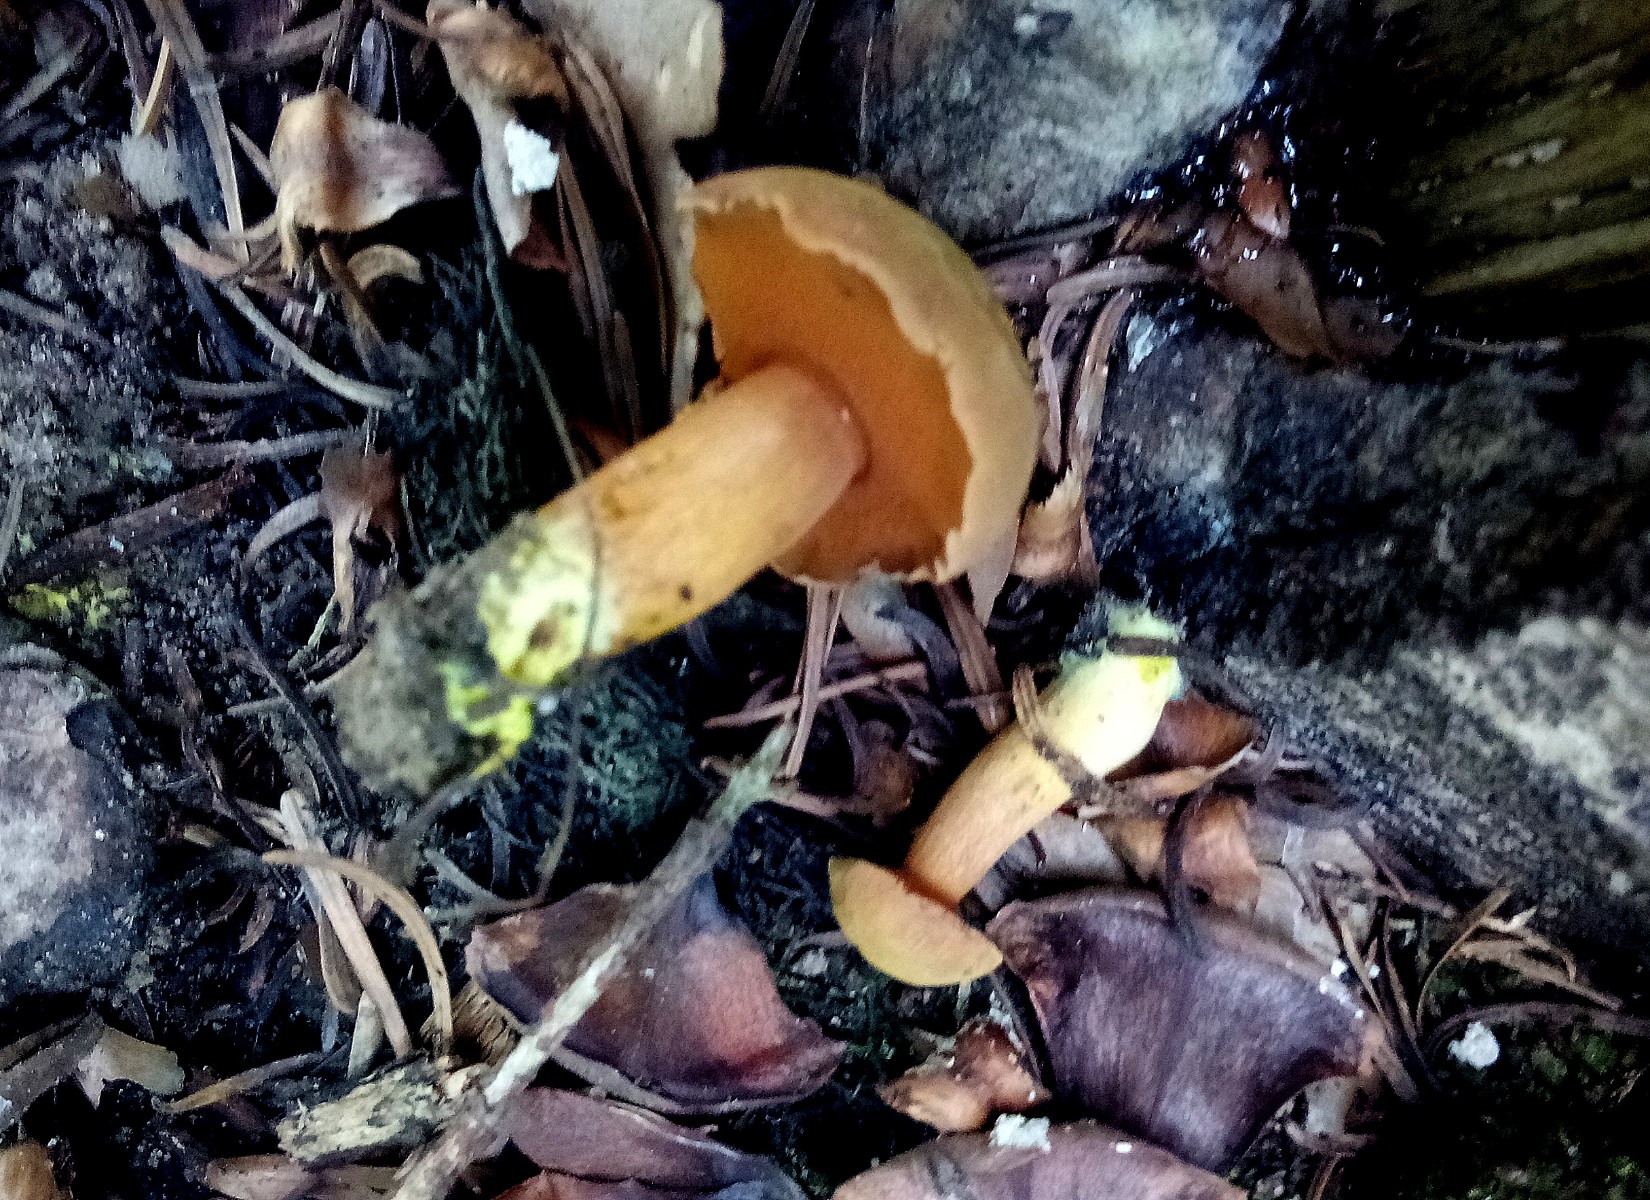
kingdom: Fungi
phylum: Basidiomycota
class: Agaricomycetes
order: Boletales
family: Boletaceae
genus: Chalciporus
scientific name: Chalciporus piperatus
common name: peberrørhat
